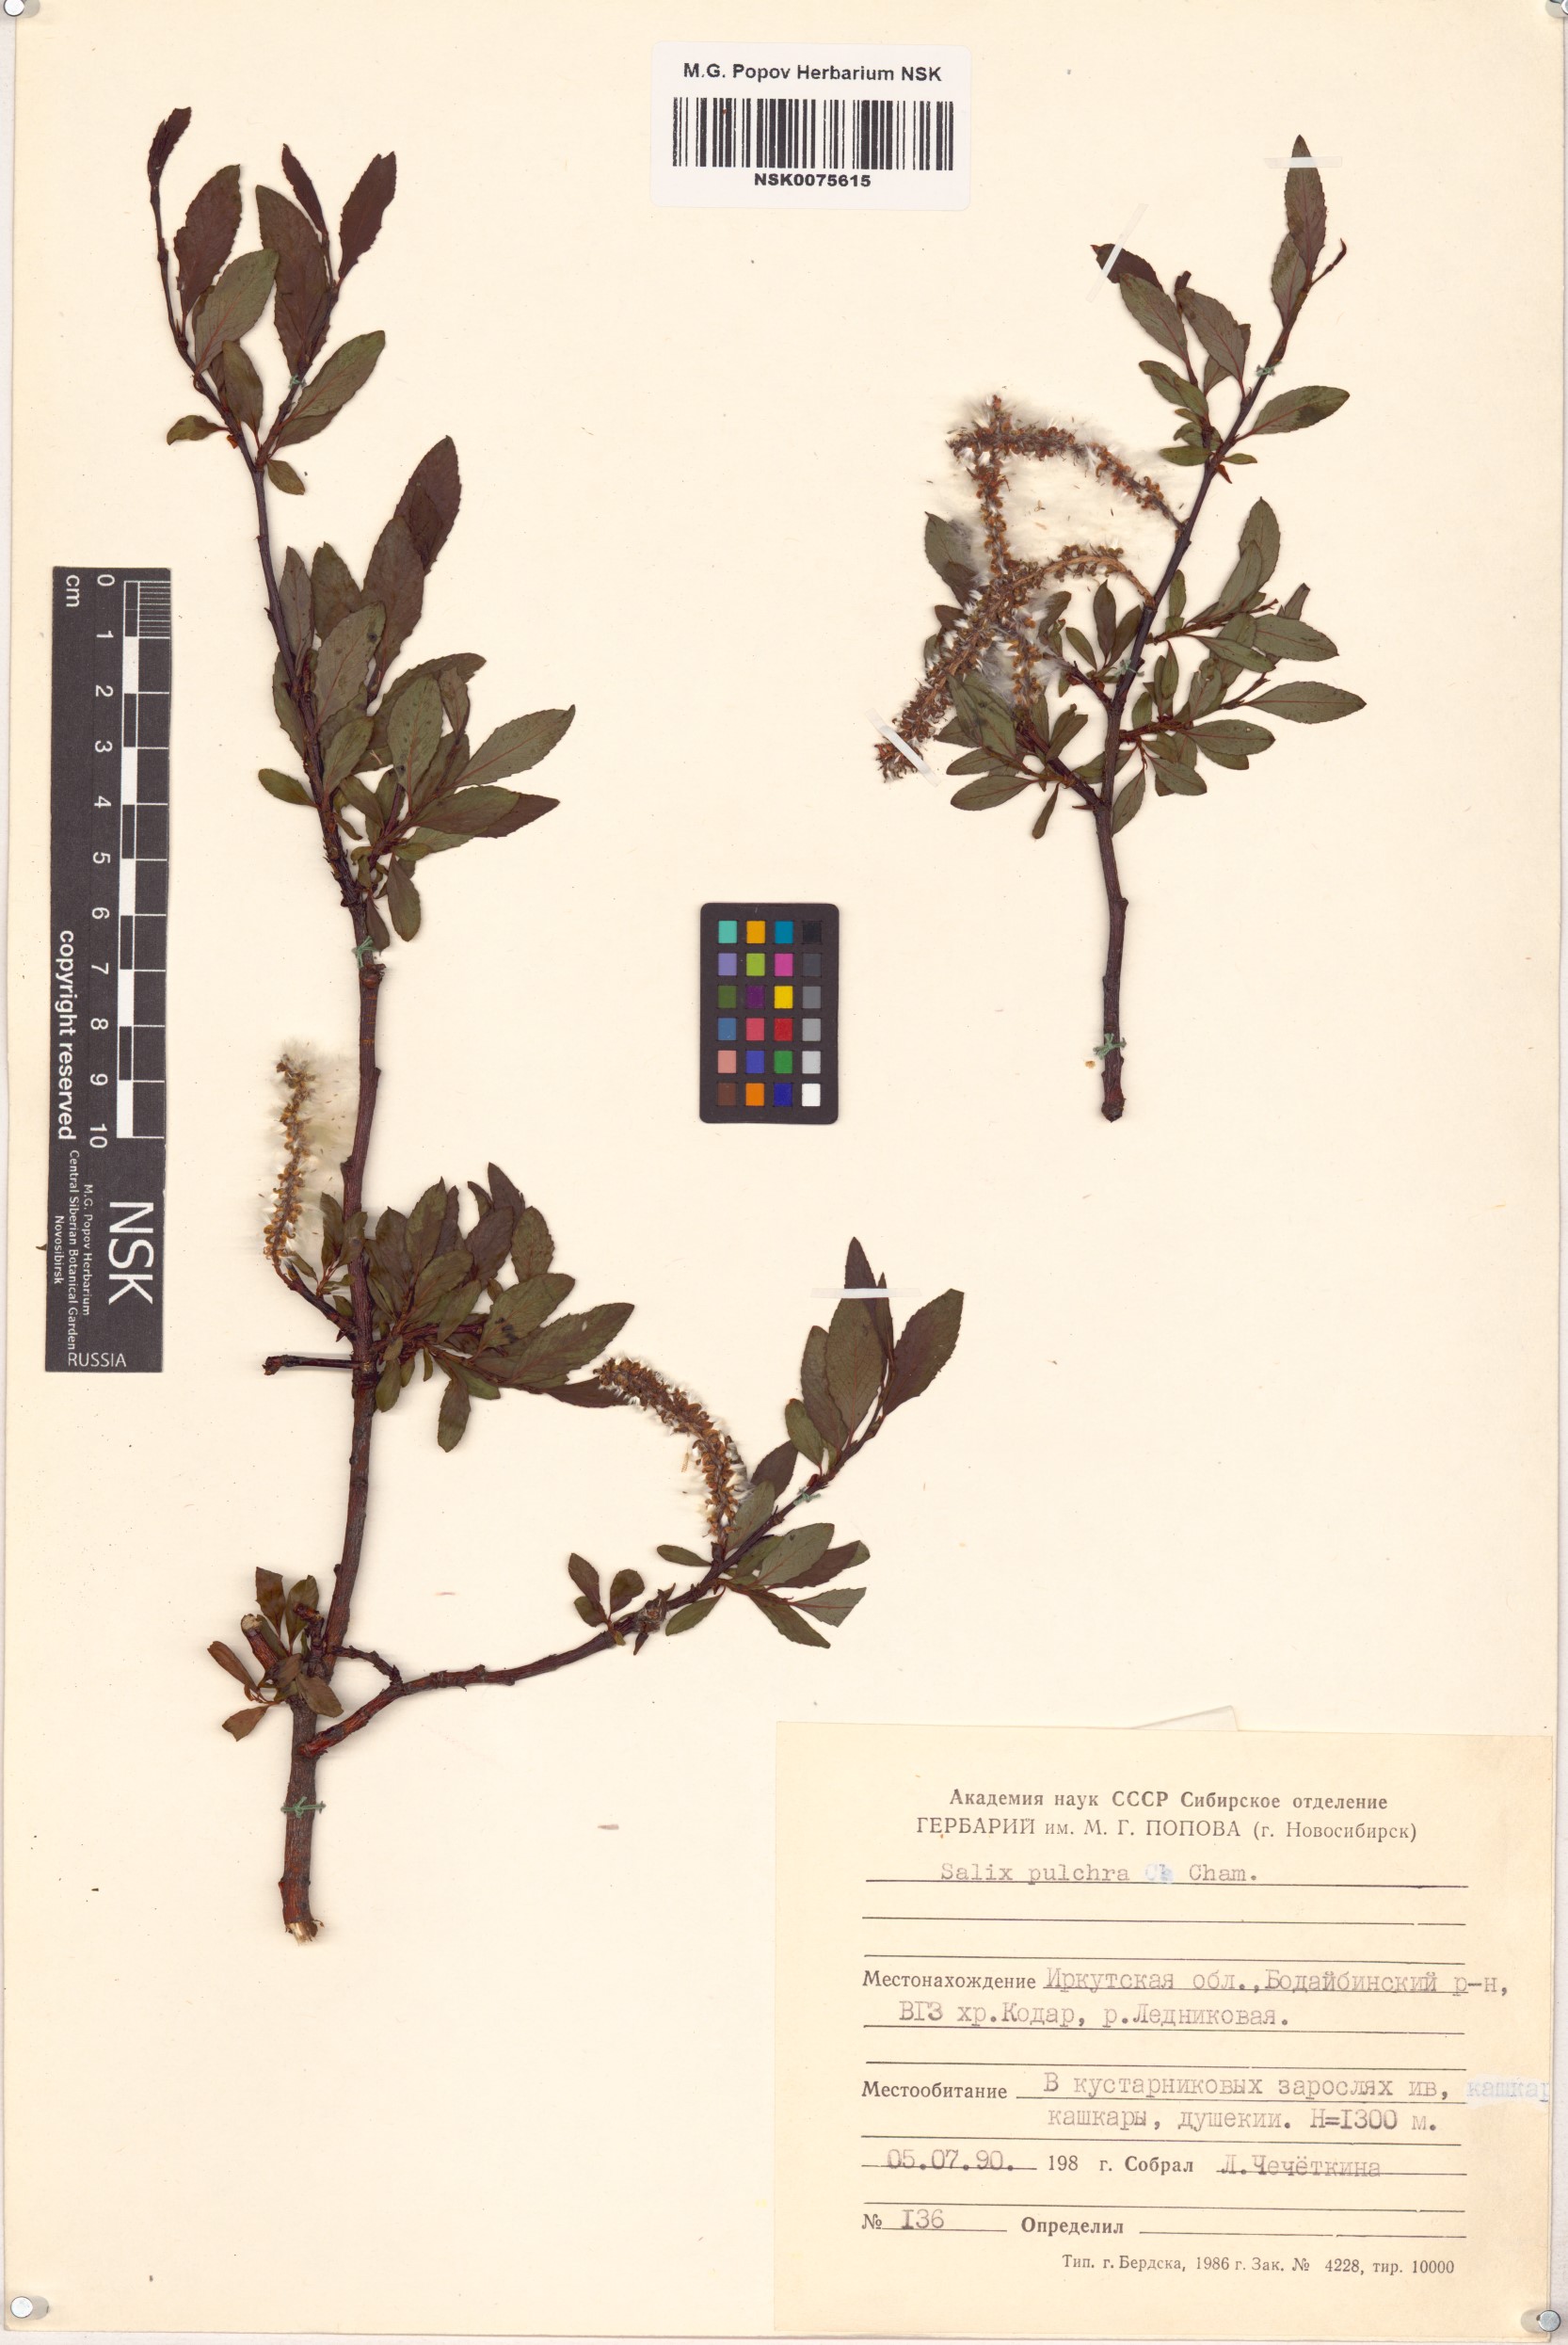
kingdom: Plantae
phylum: Tracheophyta
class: Magnoliopsida
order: Malpighiales
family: Salicaceae
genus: Salix
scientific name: Salix pulchra
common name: Diamond-leaved willow
